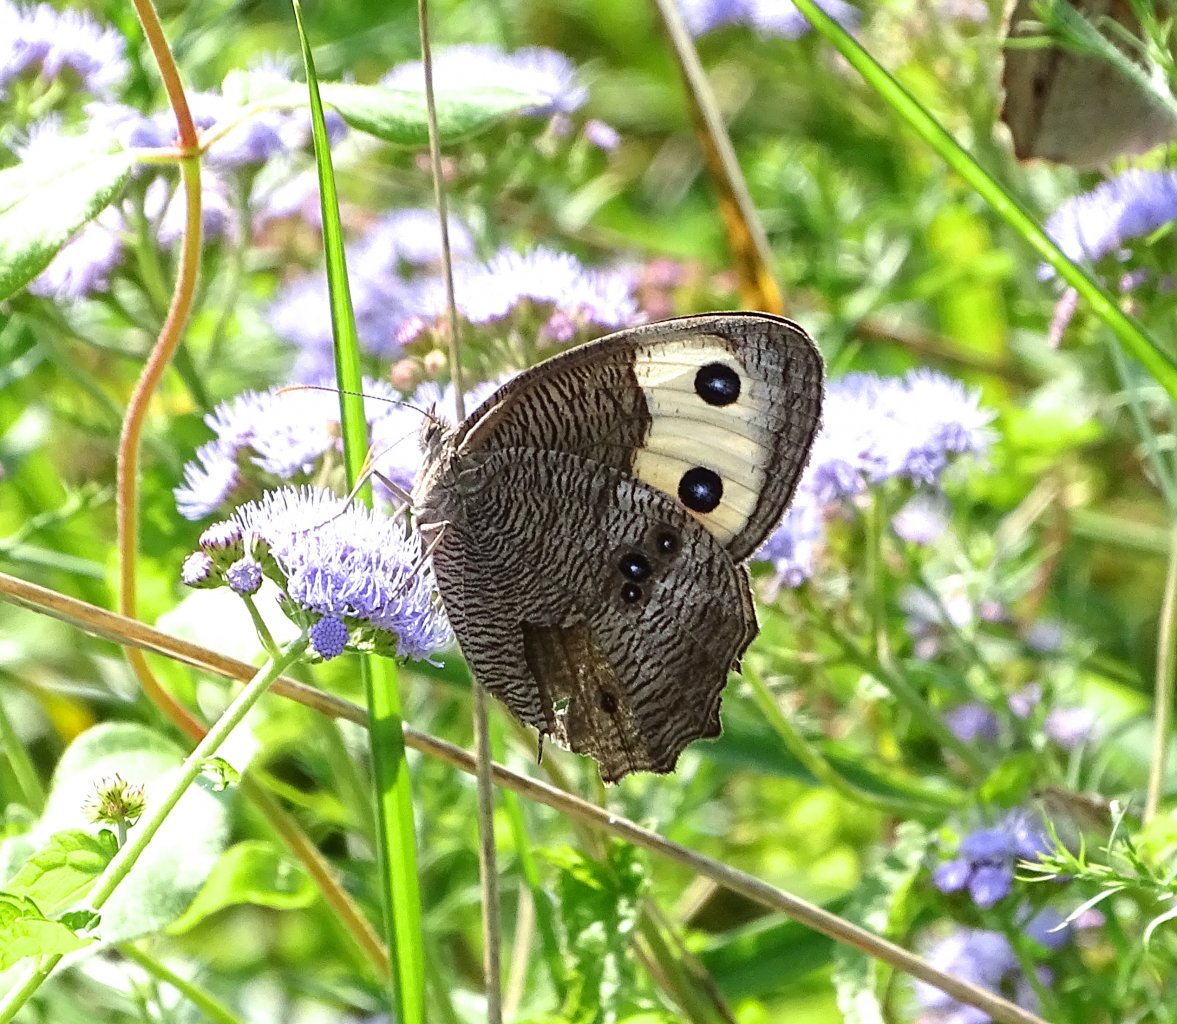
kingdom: Animalia
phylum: Arthropoda
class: Insecta
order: Lepidoptera
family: Nymphalidae
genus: Cercyonis
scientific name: Cercyonis pegala
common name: Common Wood-Nymph
